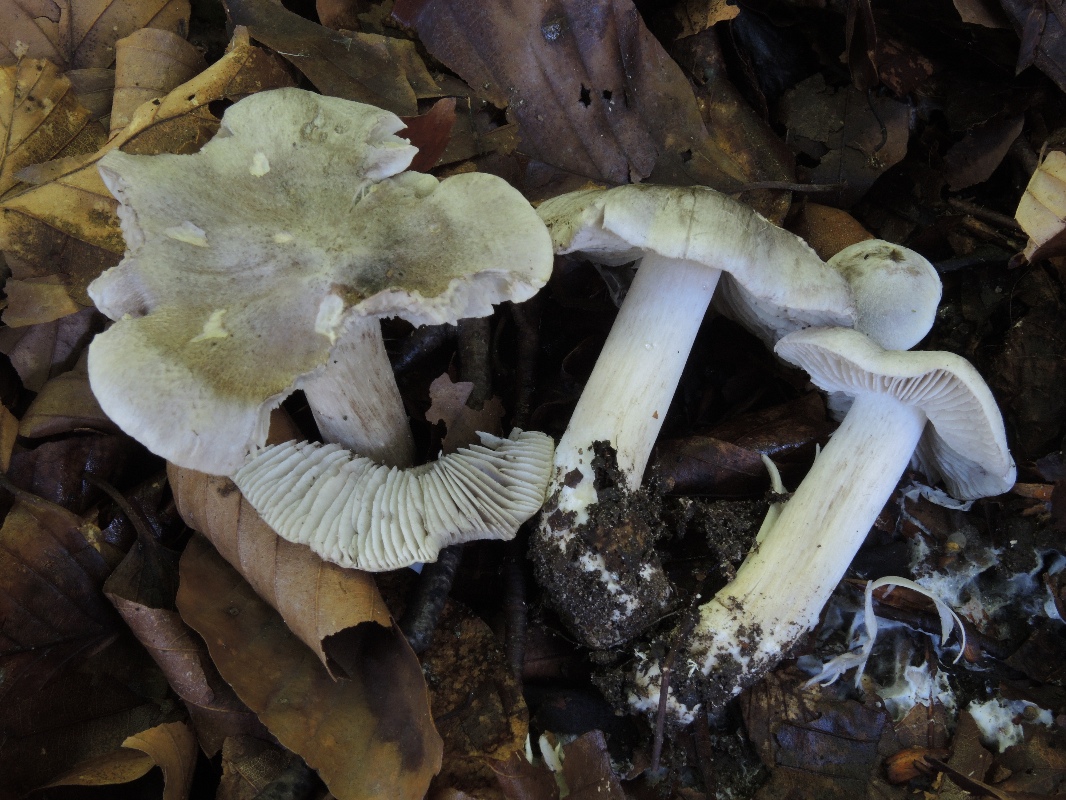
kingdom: Fungi
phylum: Basidiomycota
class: Agaricomycetes
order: Agaricales
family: Tricholomataceae
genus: Tricholoma
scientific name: Tricholoma sciodes
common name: stribet ridderhat
